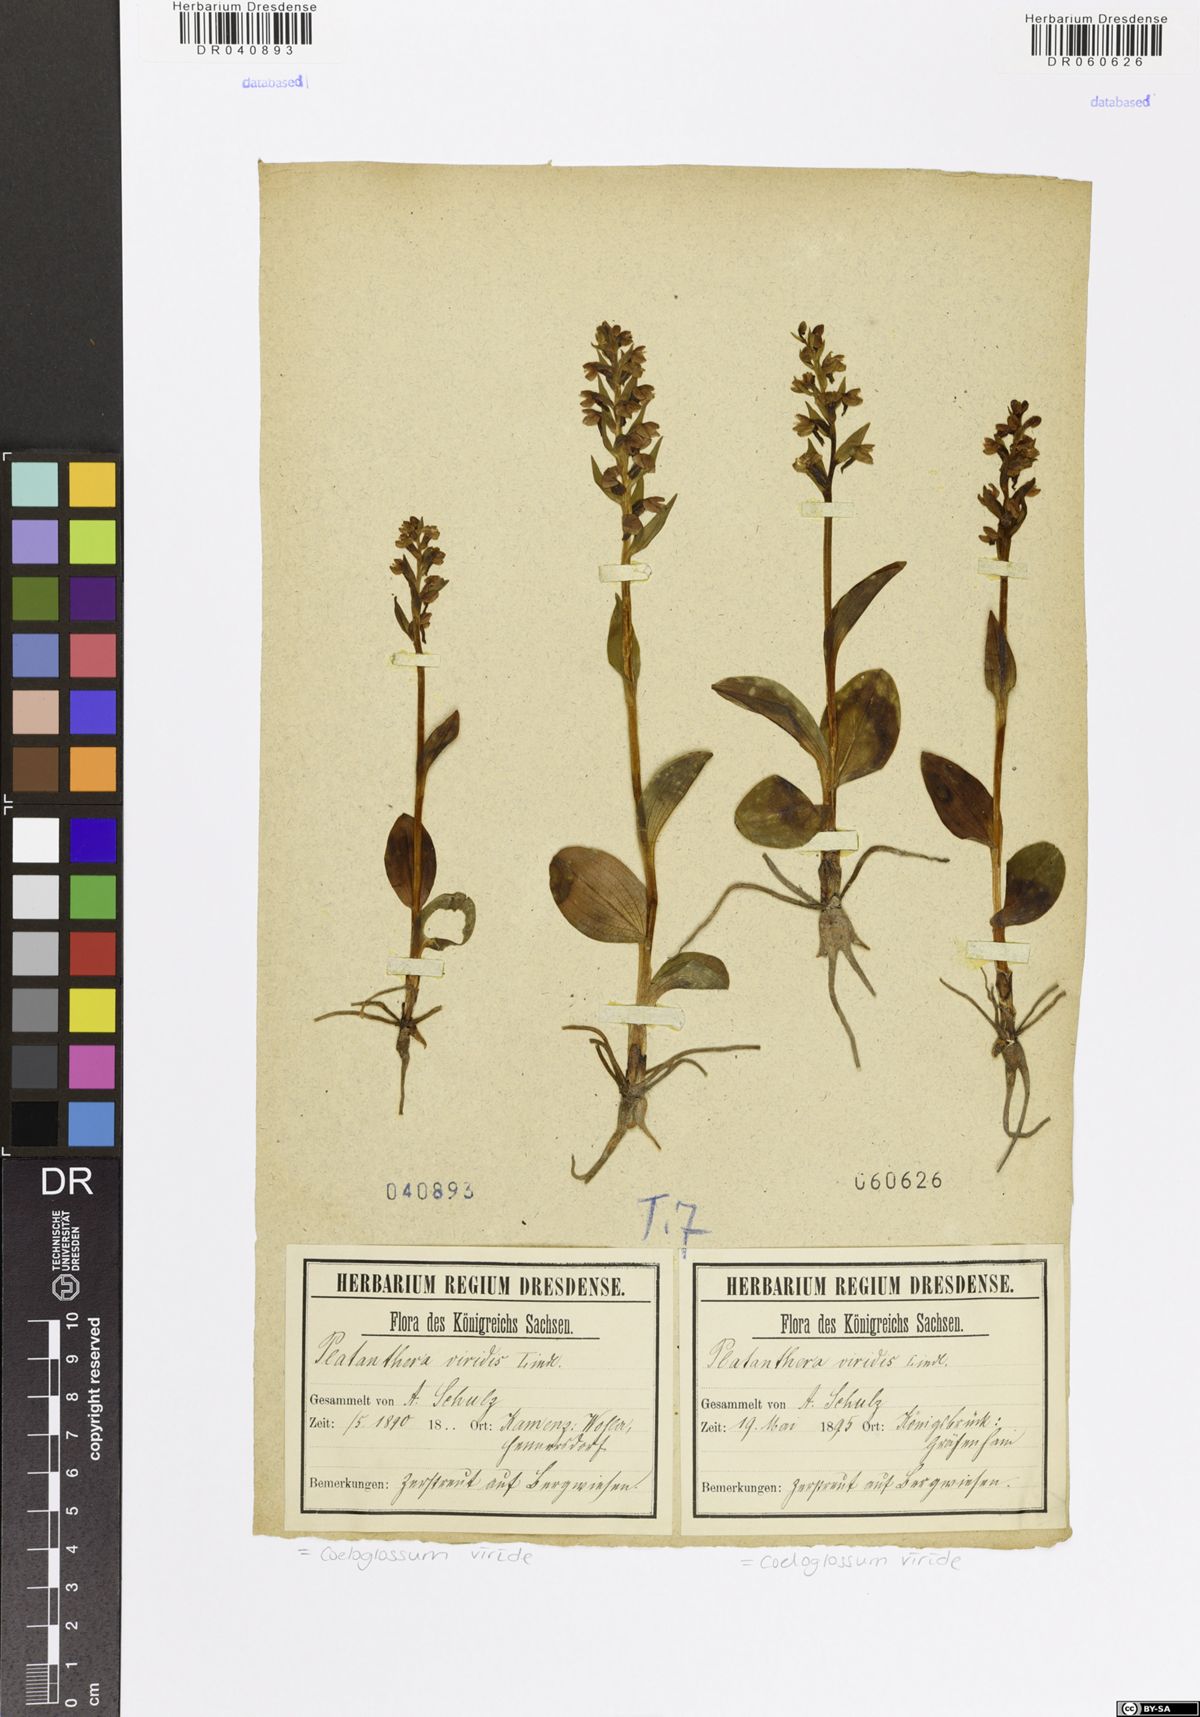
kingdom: Plantae
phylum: Tracheophyta
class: Liliopsida
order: Asparagales
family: Orchidaceae
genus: Dactylorhiza
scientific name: Dactylorhiza viridis
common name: Longbract frog orchid
